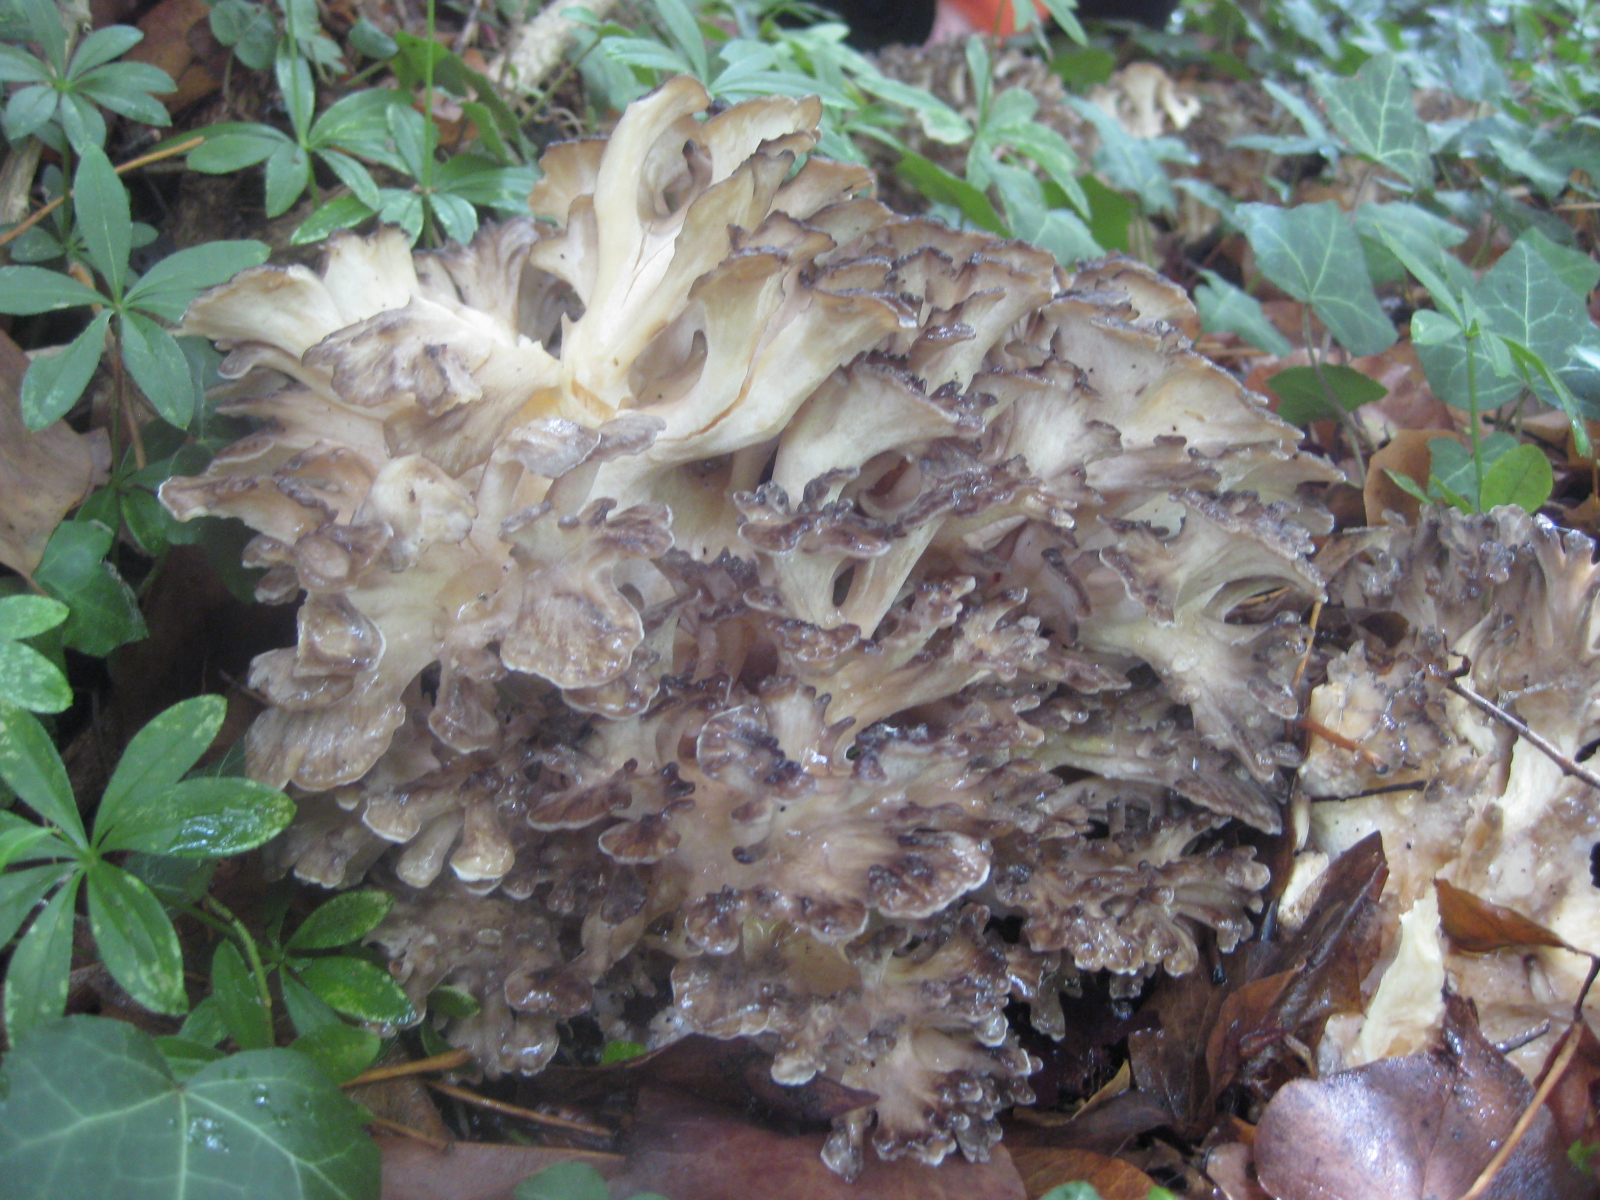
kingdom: Fungi
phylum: Basidiomycota
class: Agaricomycetes
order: Polyporales
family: Grifolaceae
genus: Grifola
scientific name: Grifola frondosa
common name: tueporesvamp
